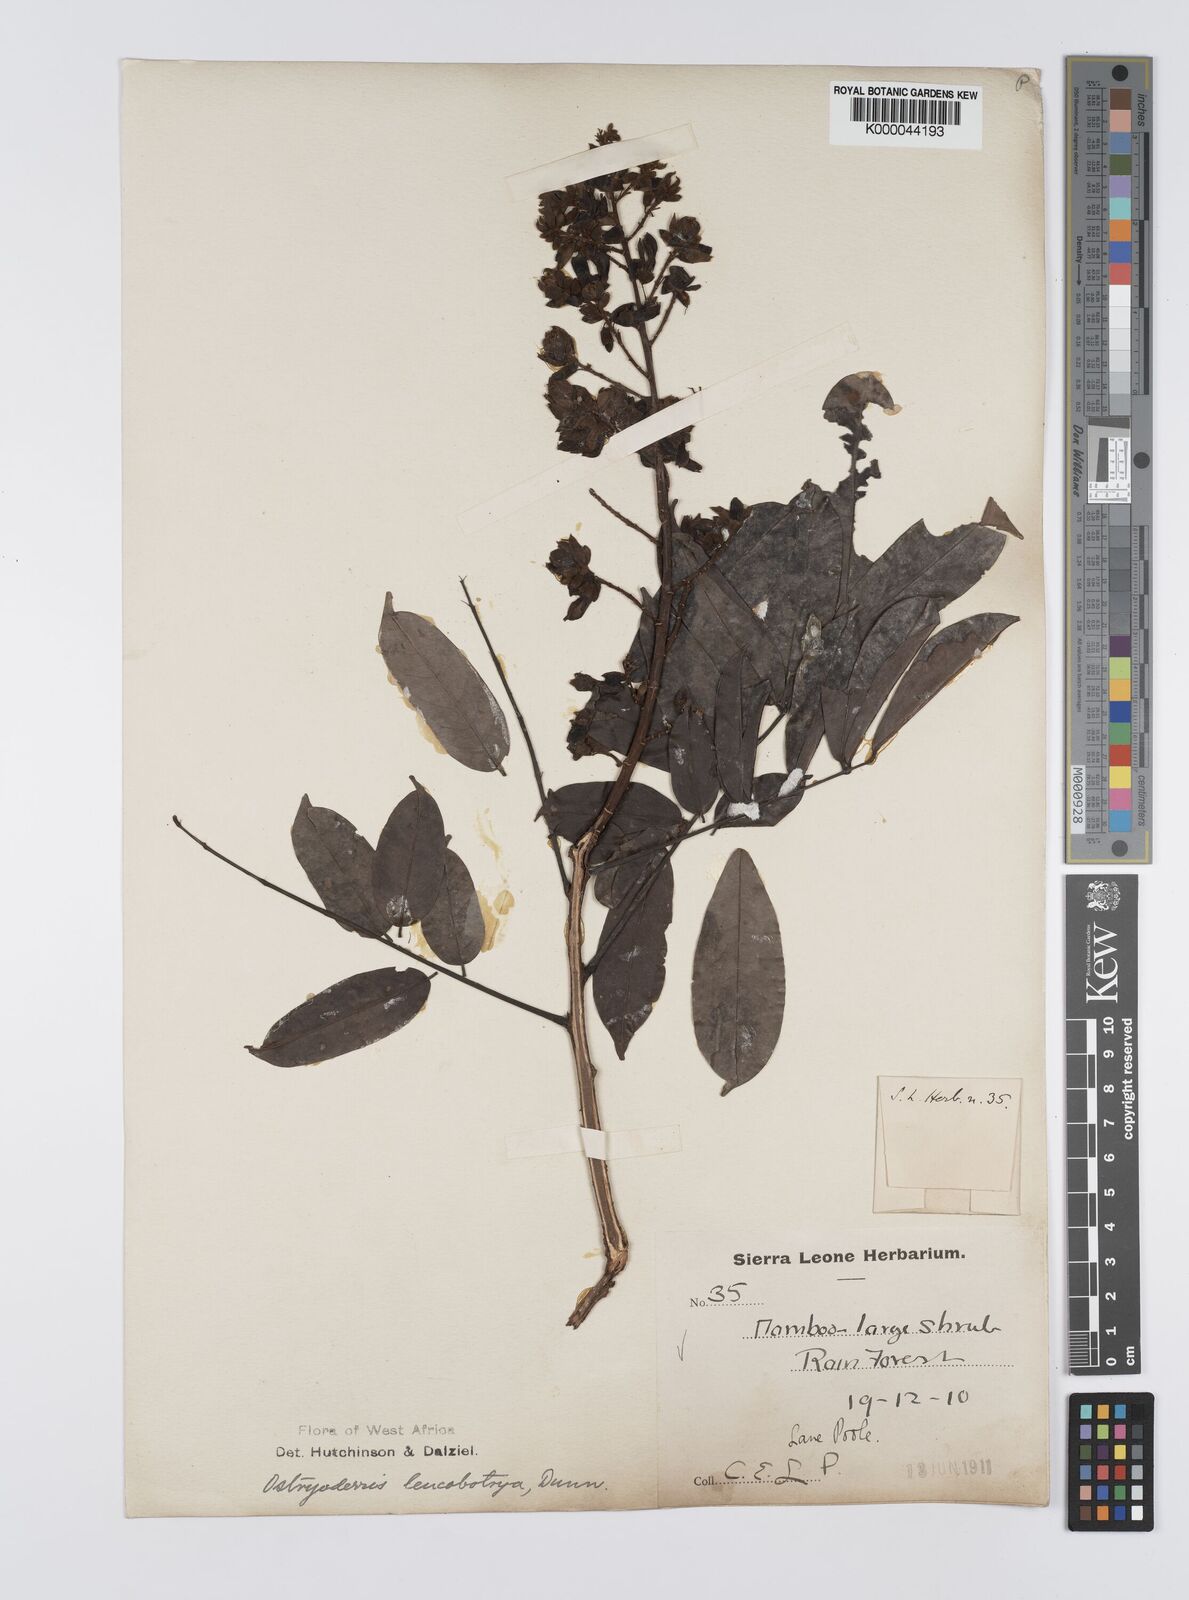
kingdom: Plantae
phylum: Tracheophyta
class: Magnoliopsida
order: Fabales
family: Fabaceae
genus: Aganope
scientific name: Aganope leucobotrya
